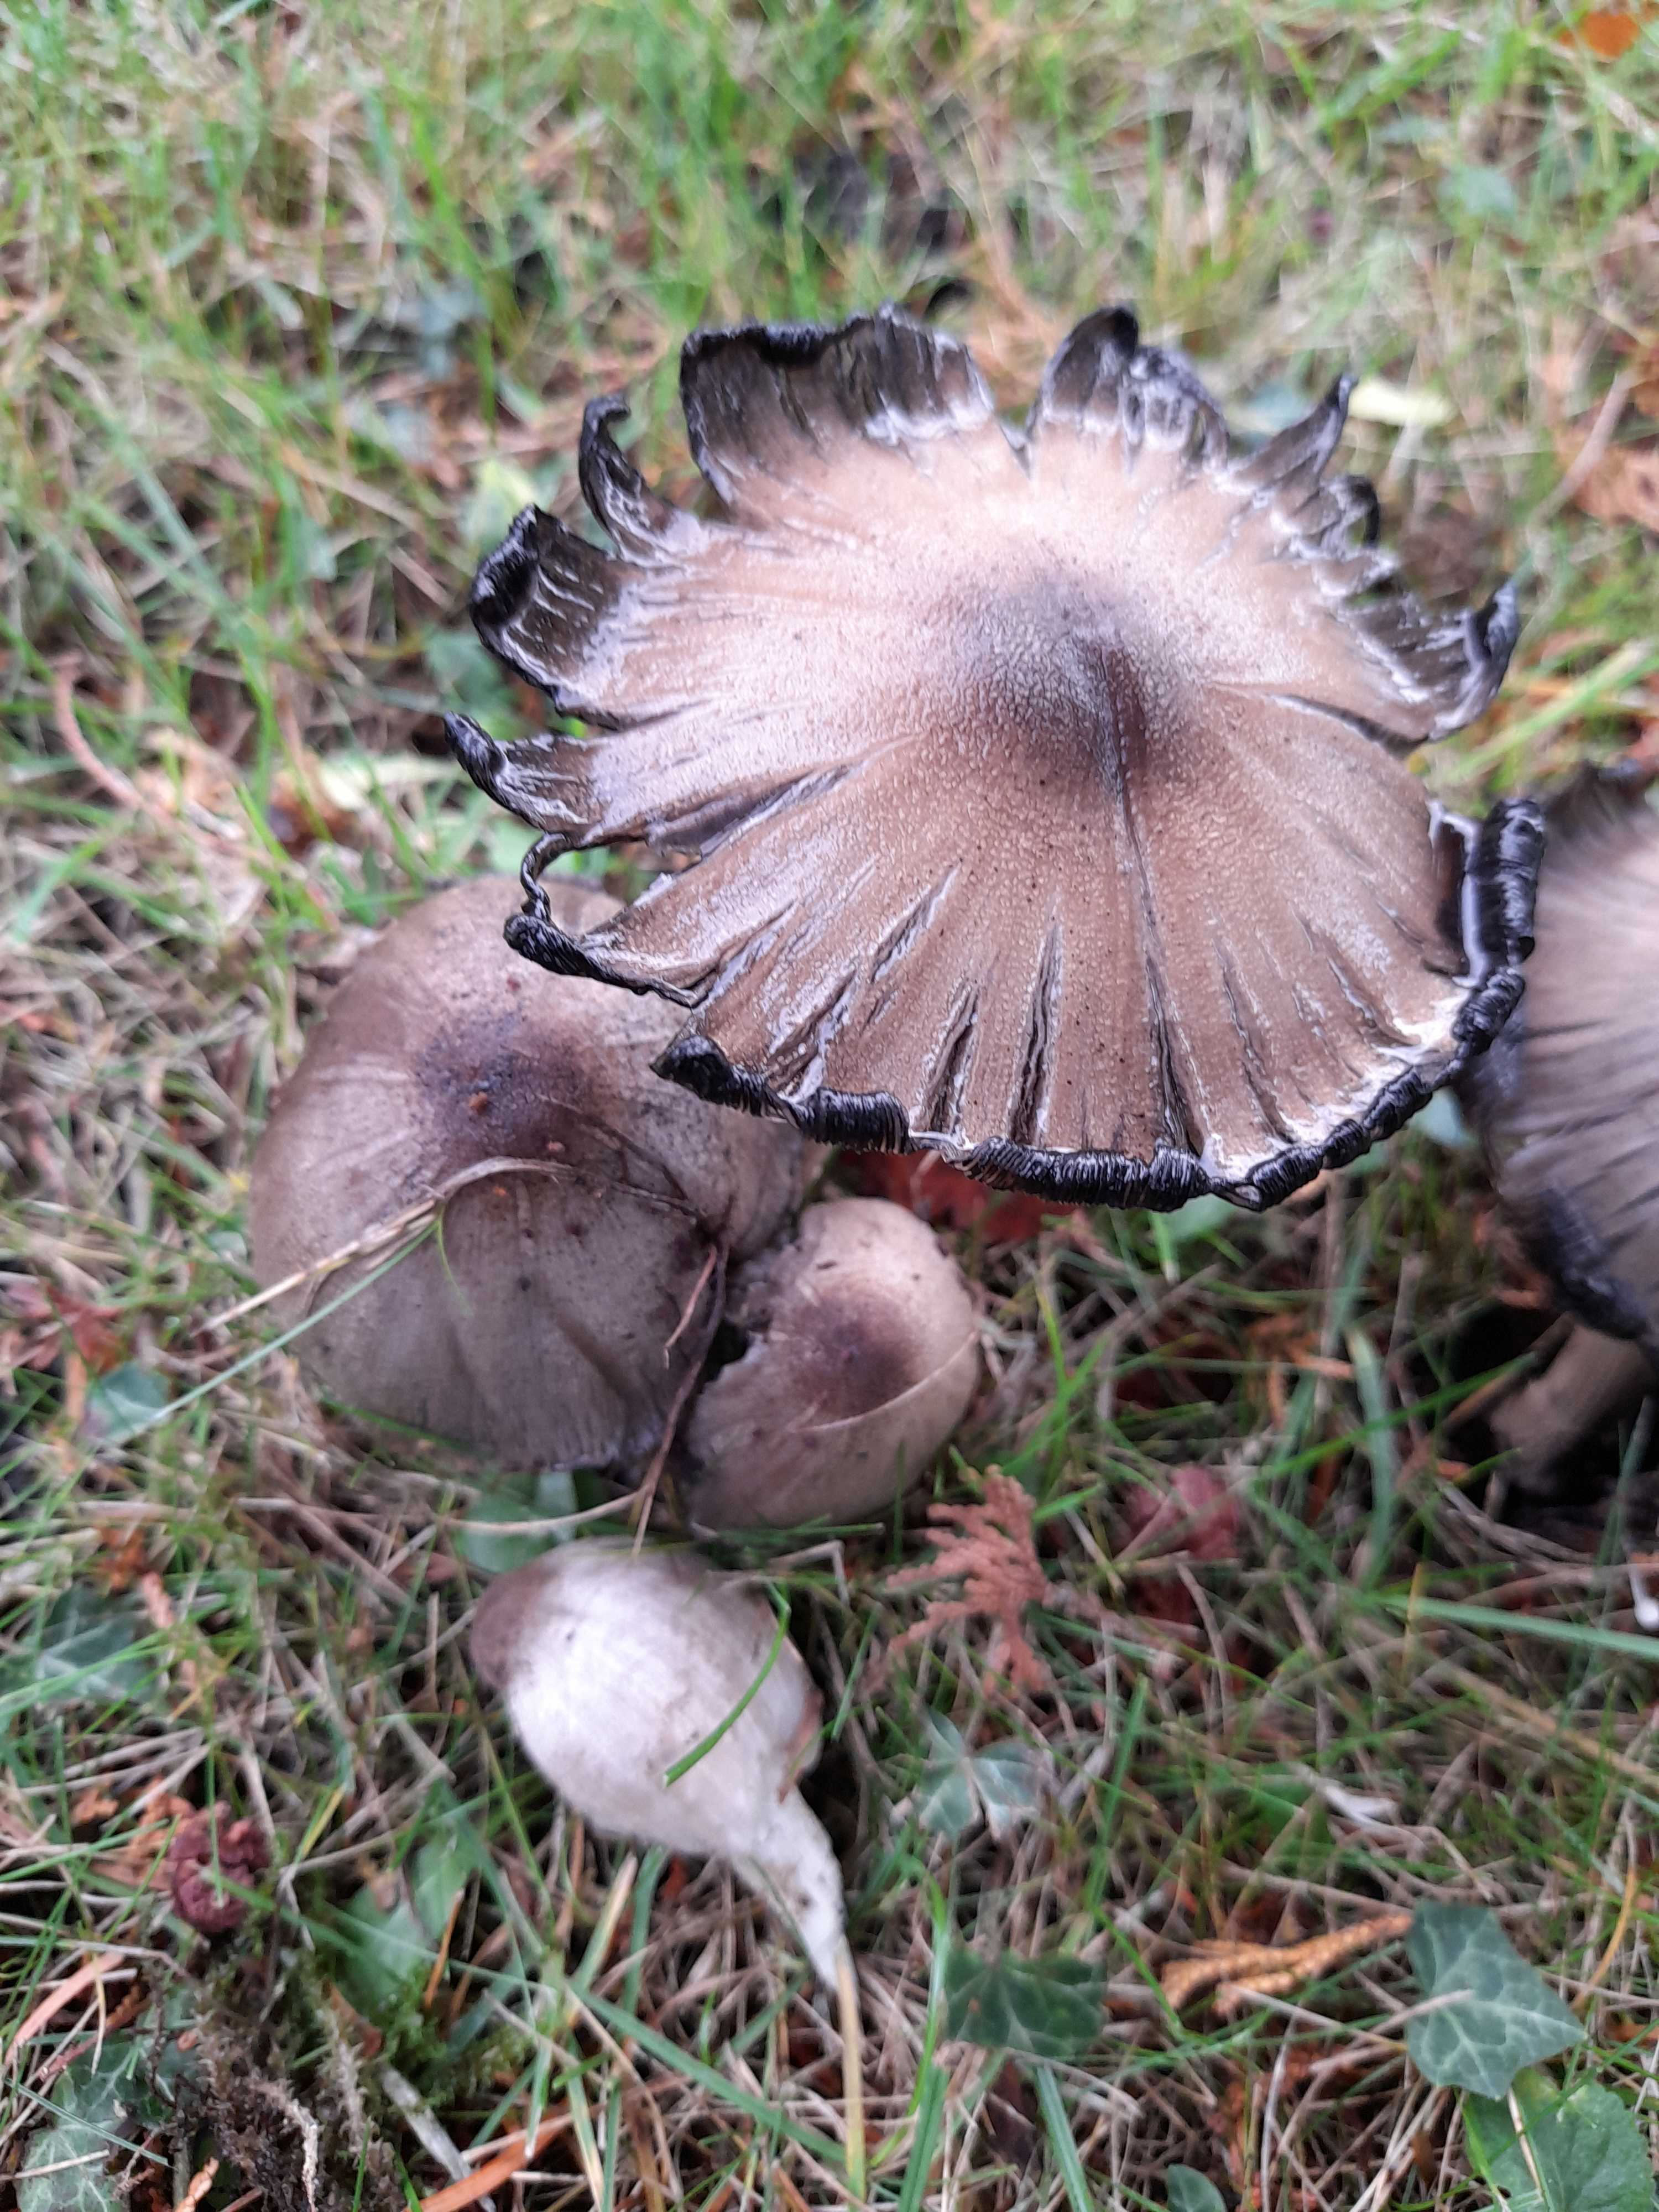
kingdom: Fungi
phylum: Basidiomycota
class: Agaricomycetes
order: Agaricales
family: Psathyrellaceae
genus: Coprinopsis
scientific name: Coprinopsis romagnesiana
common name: brunskællet blækhat
